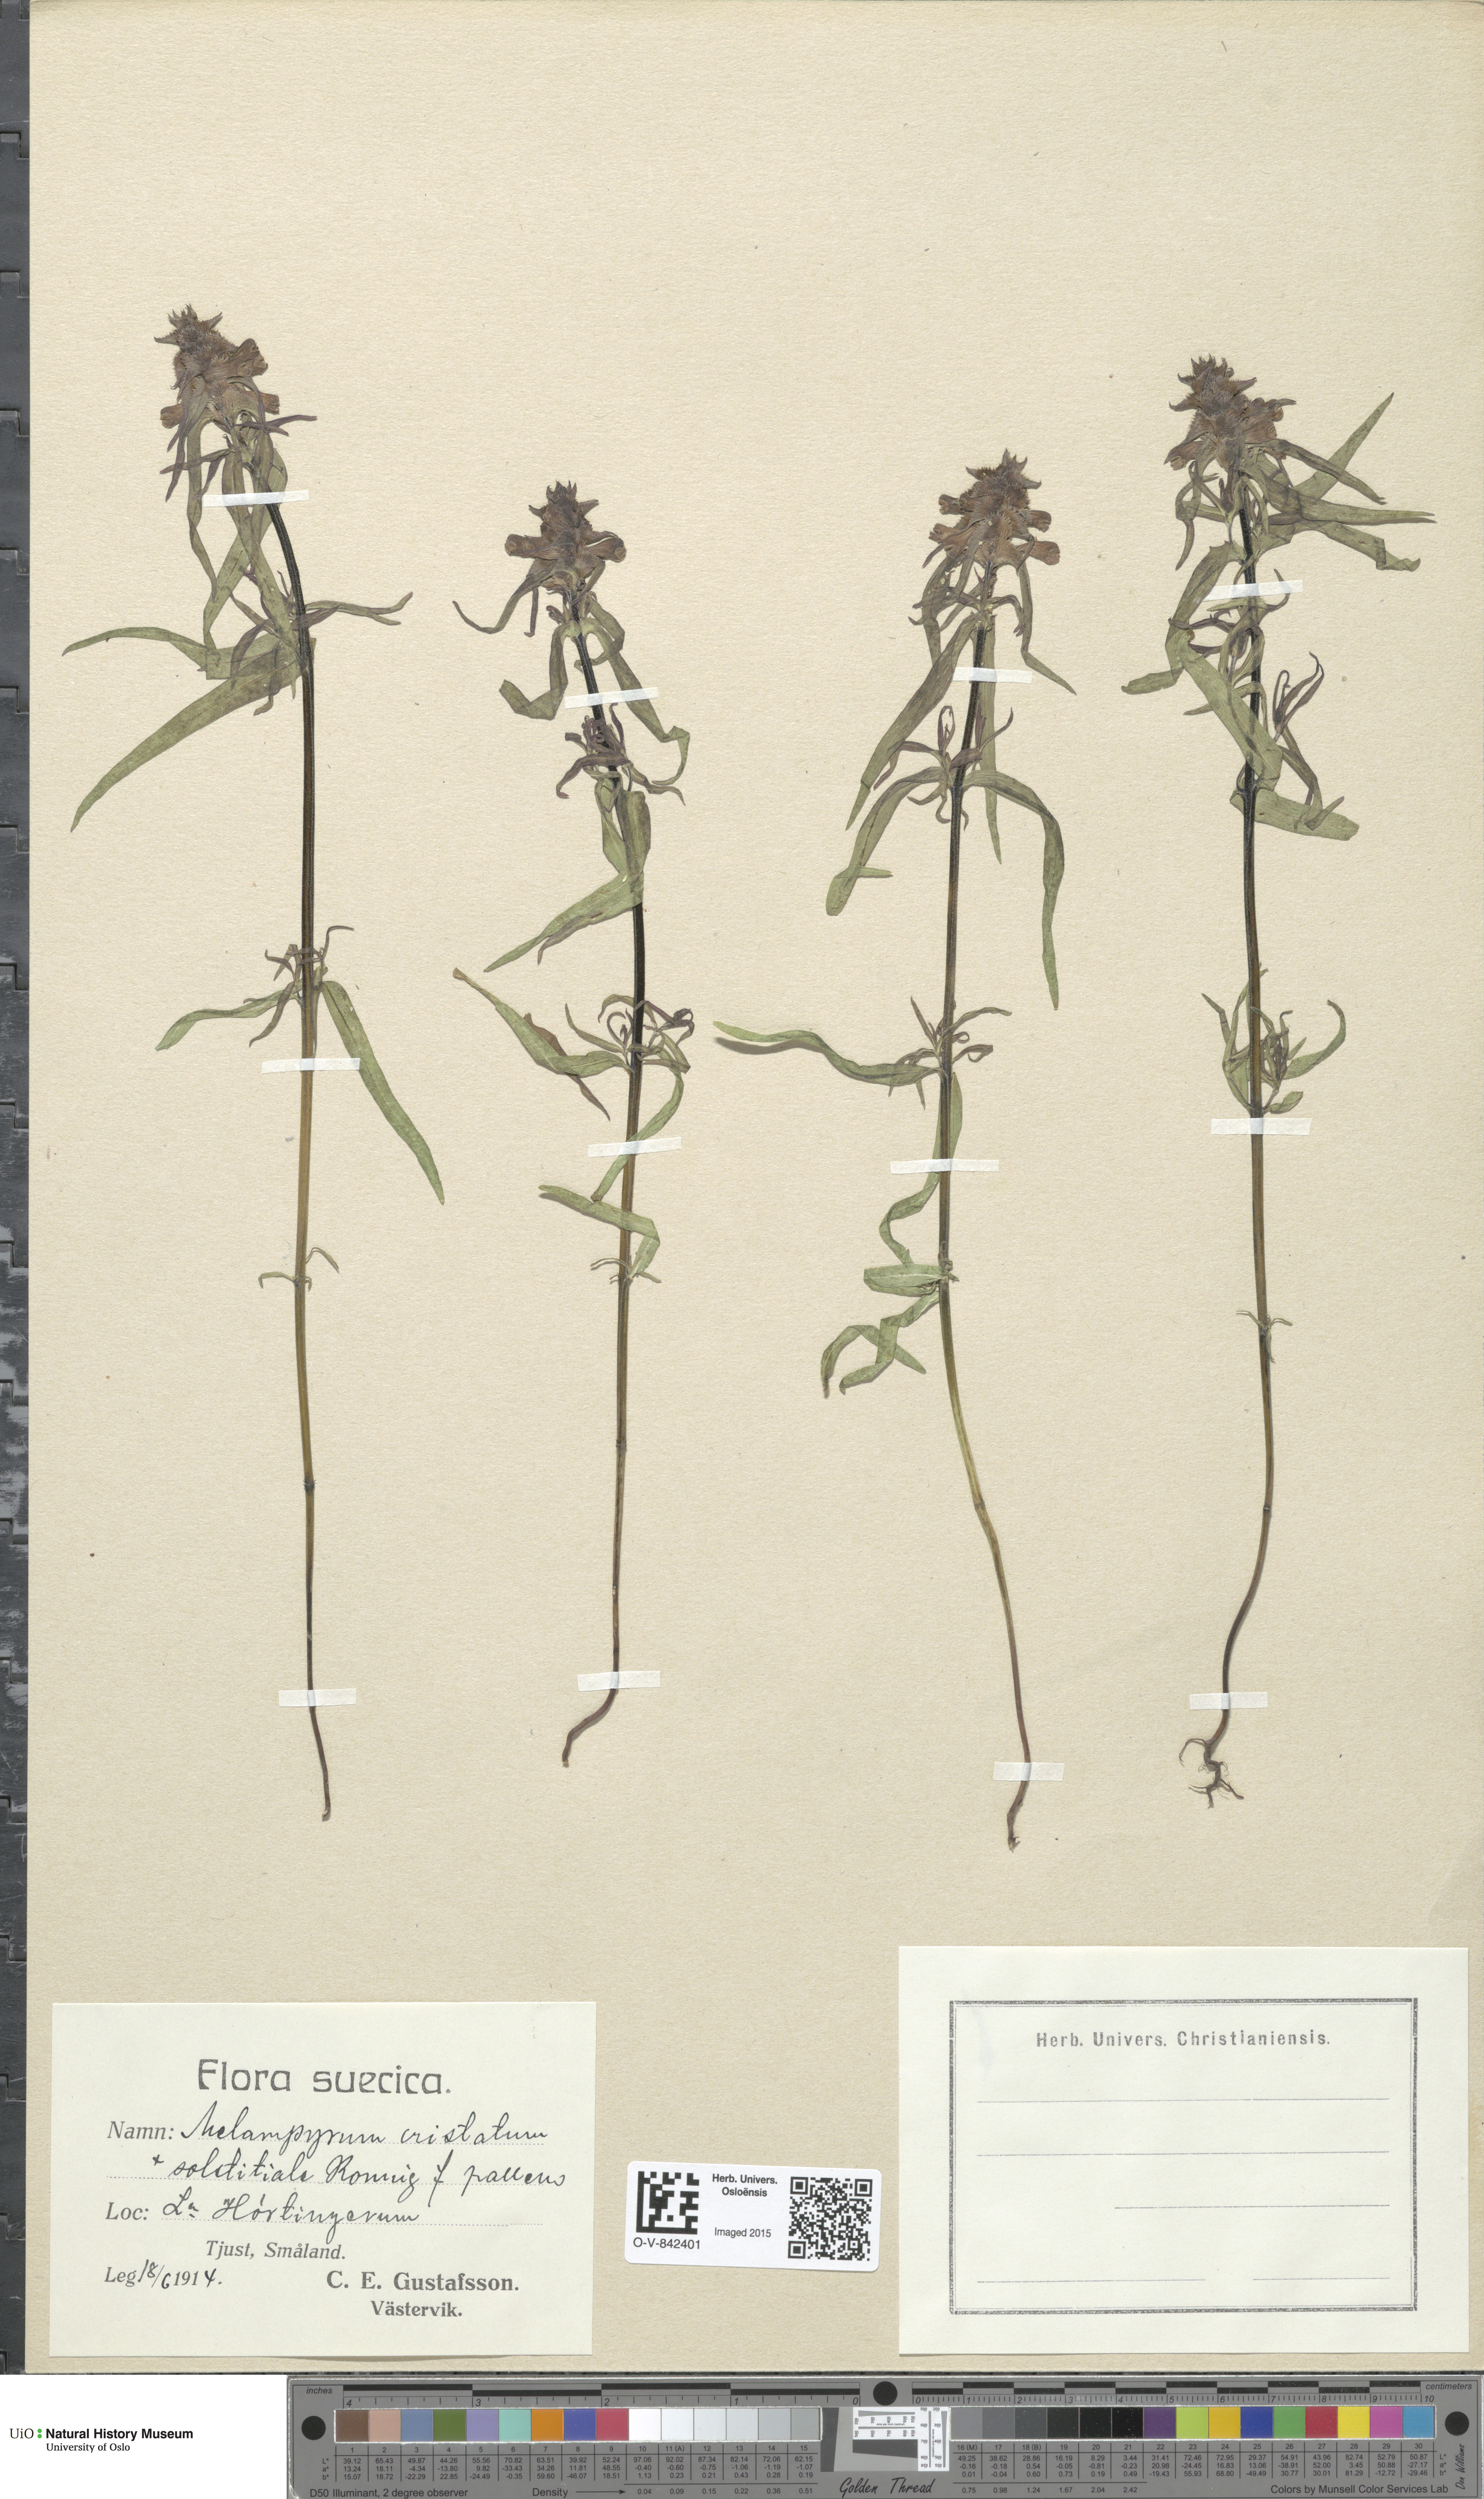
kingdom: Plantae
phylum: Tracheophyta
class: Magnoliopsida
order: Lamiales
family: Orobanchaceae
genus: Melampyrum
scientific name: Melampyrum cristatum
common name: Crested cow-wheat
